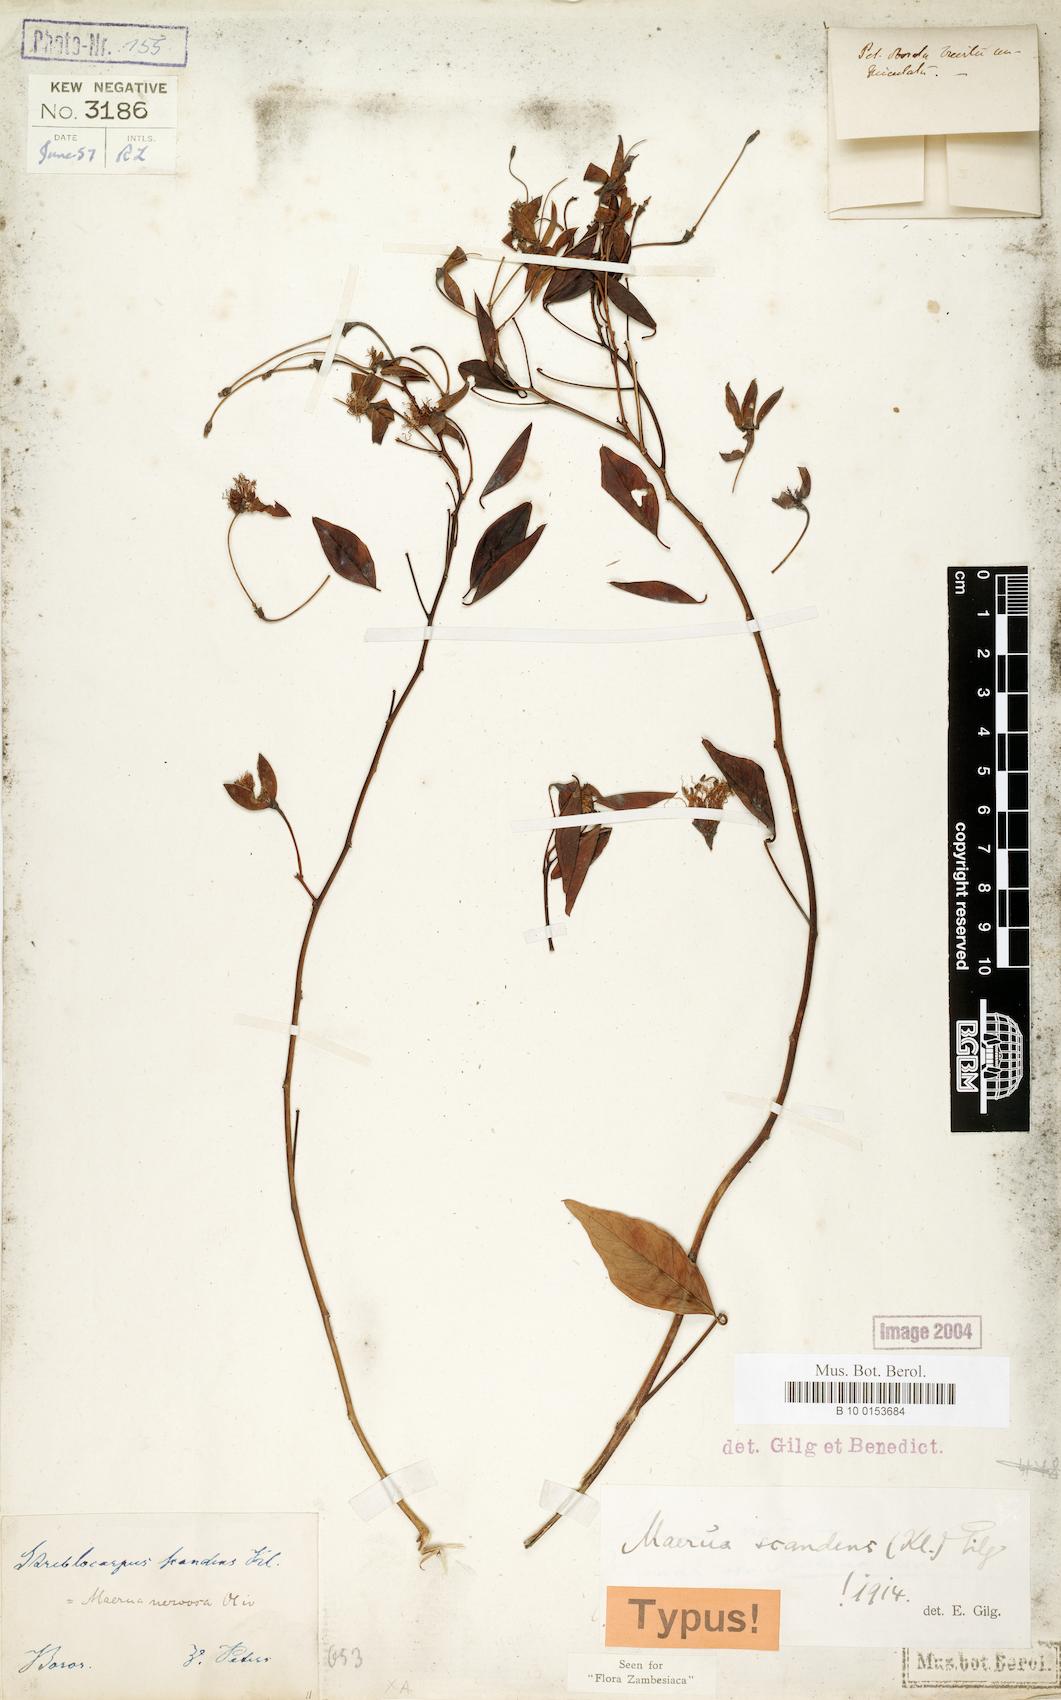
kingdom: Plantae
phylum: Tracheophyta
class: Magnoliopsida
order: Brassicales
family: Capparaceae
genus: Maerua
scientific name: Maerua nervosa
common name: Natal bush-cherry
